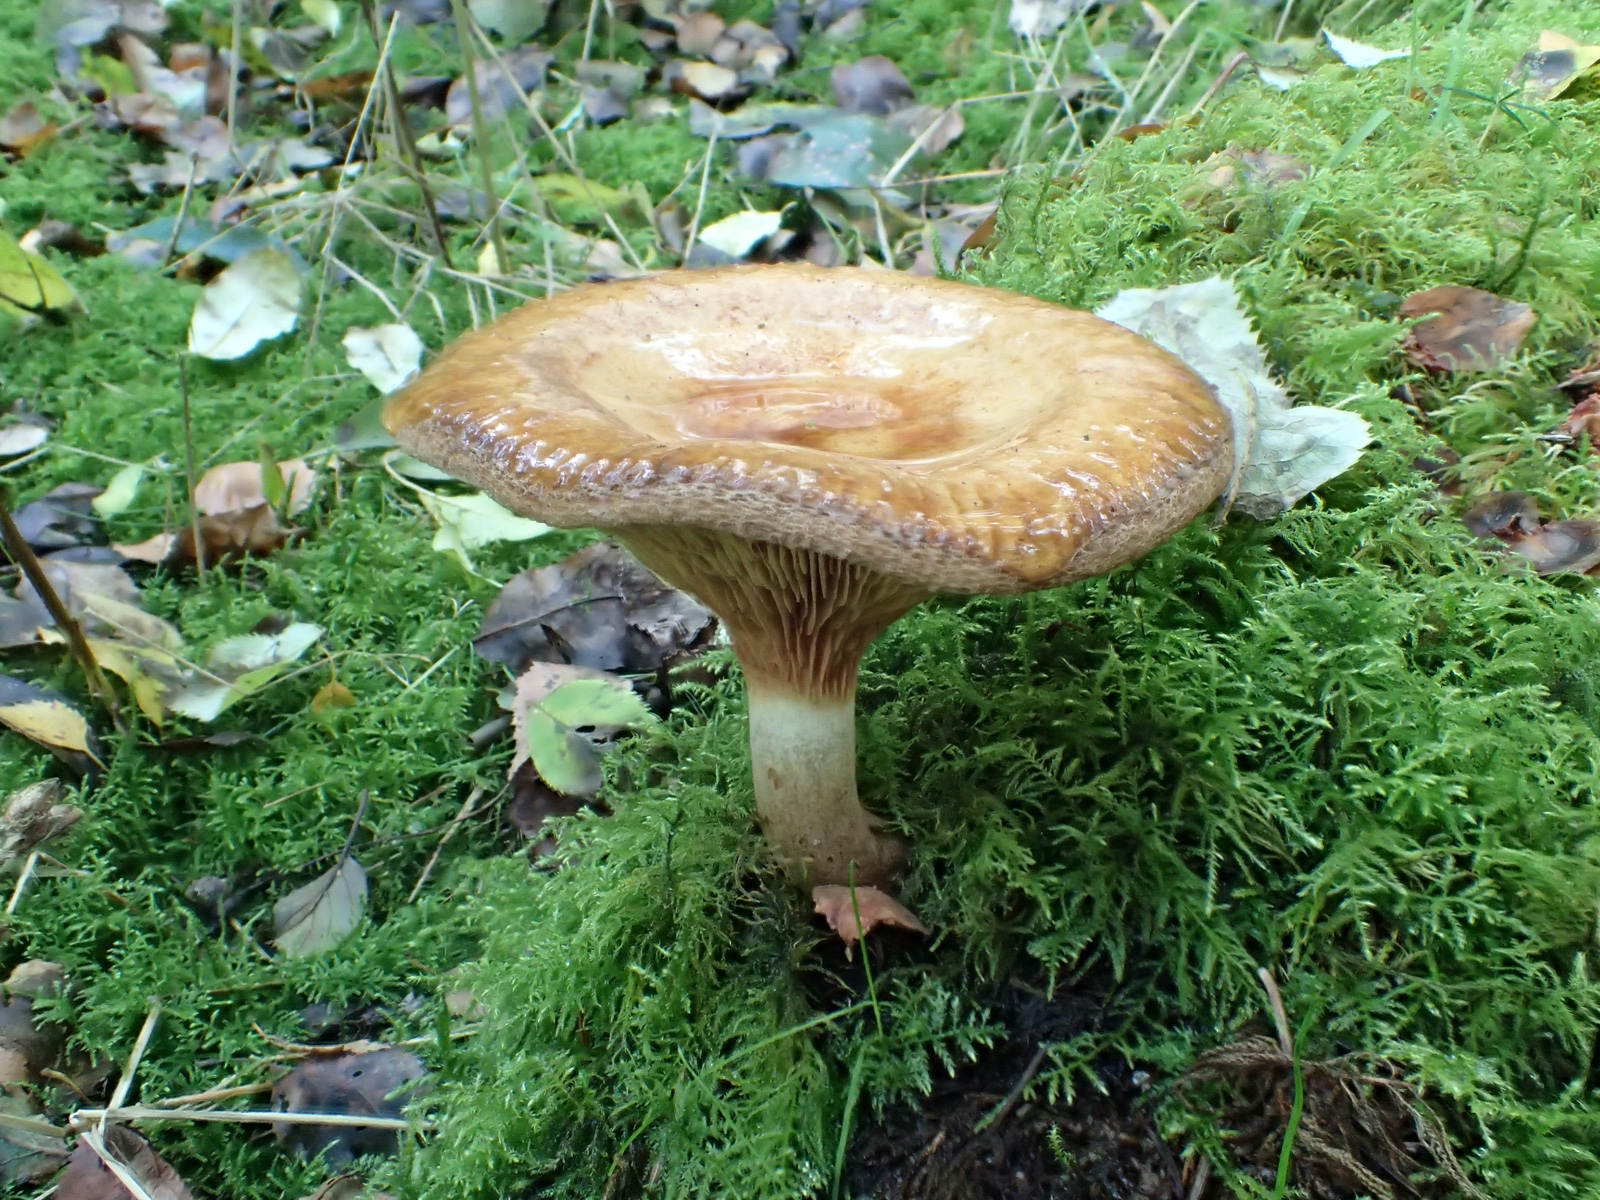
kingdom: Fungi
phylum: Basidiomycota
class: Agaricomycetes
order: Boletales
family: Paxillaceae
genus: Paxillus
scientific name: Paxillus involutus
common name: almindelig netbladhat
